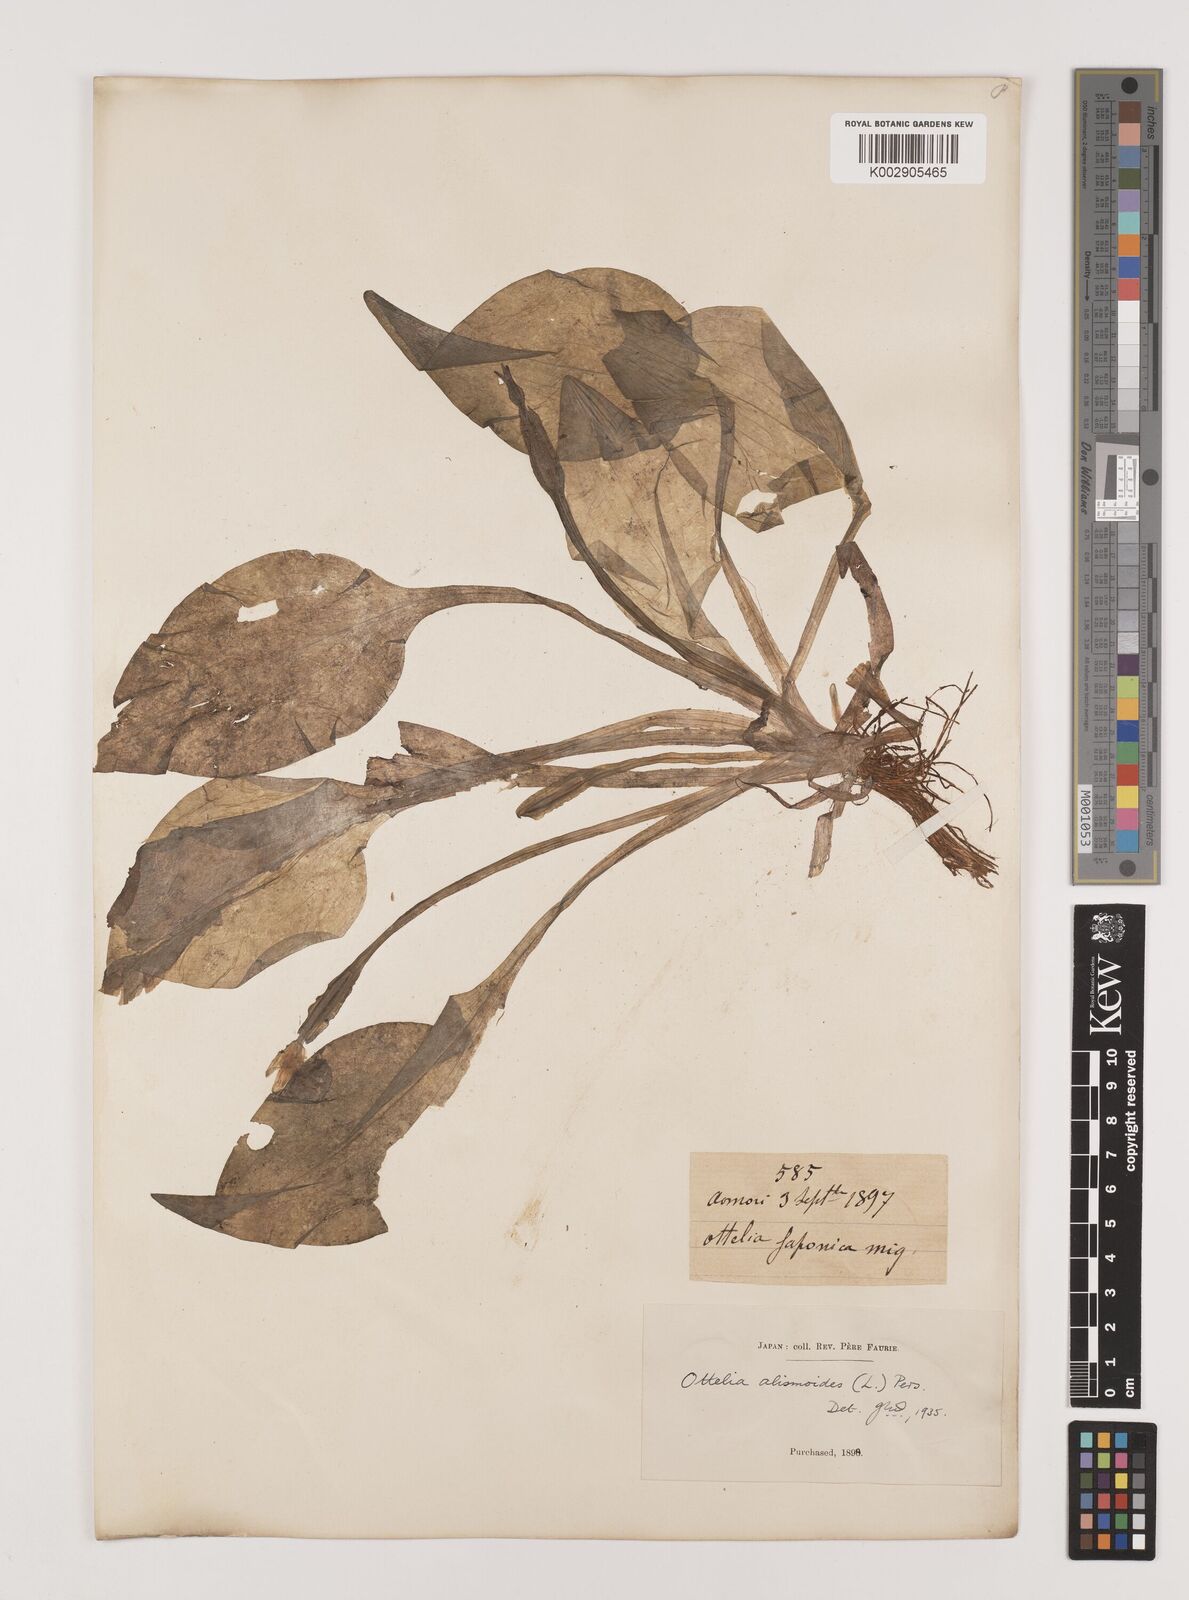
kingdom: Plantae
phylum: Tracheophyta
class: Liliopsida
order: Alismatales
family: Hydrocharitaceae
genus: Ottelia
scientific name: Ottelia alismoides
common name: Duck-lettuce
